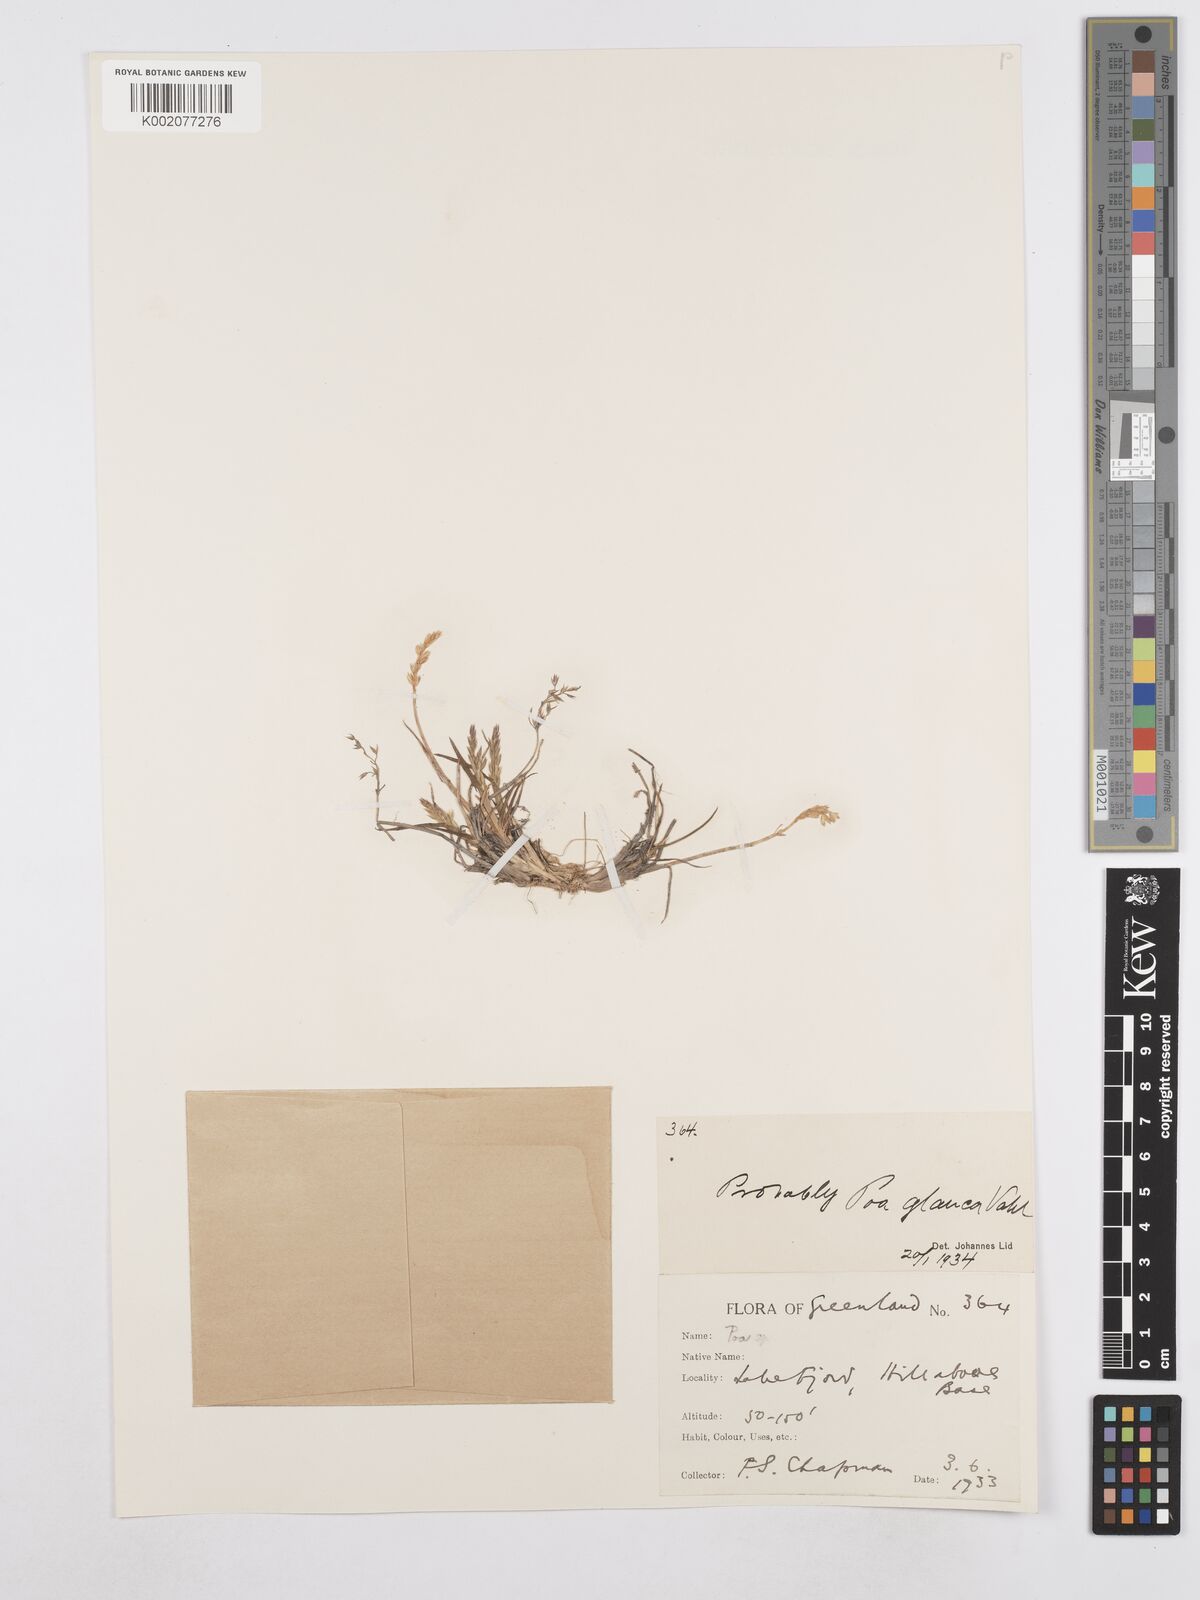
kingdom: Plantae
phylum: Tracheophyta
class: Liliopsida
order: Poales
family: Poaceae
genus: Poa
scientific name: Poa glauca
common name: Glaucous bluegrass
